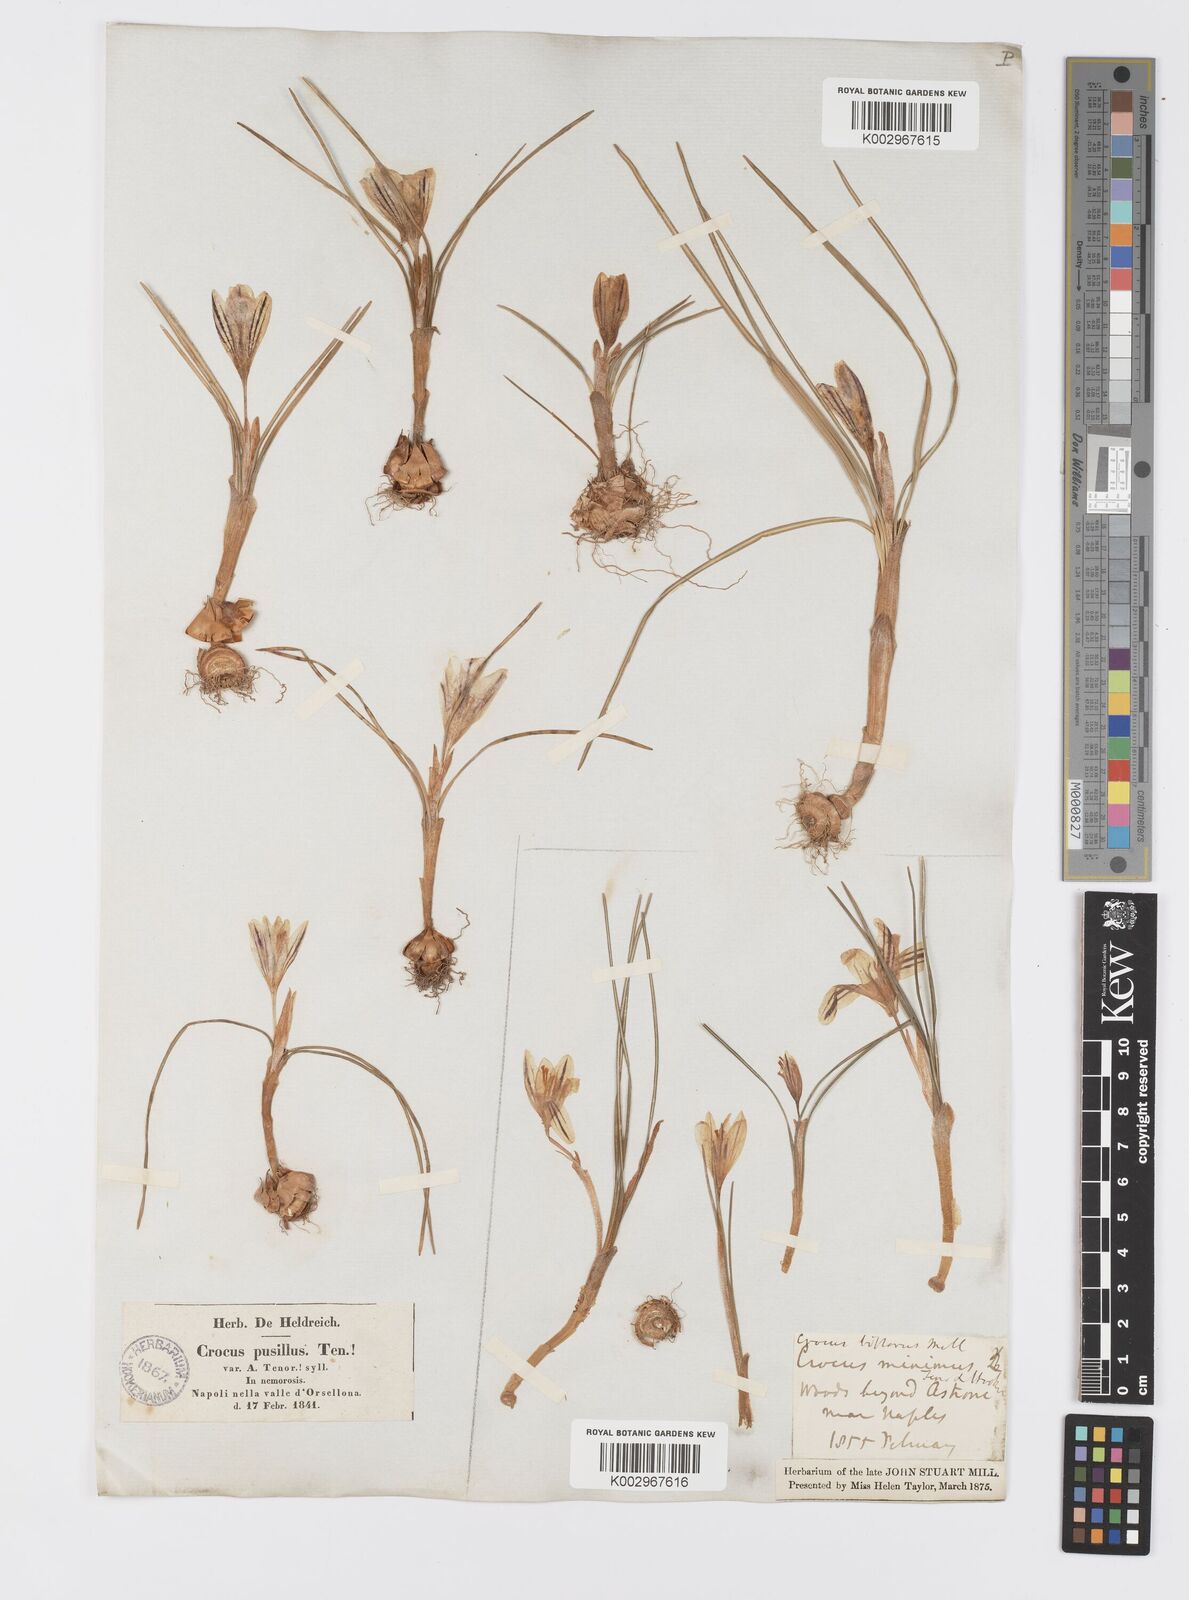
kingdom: Plantae
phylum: Tracheophyta
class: Liliopsida
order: Asparagales
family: Iridaceae
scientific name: Iridaceae
